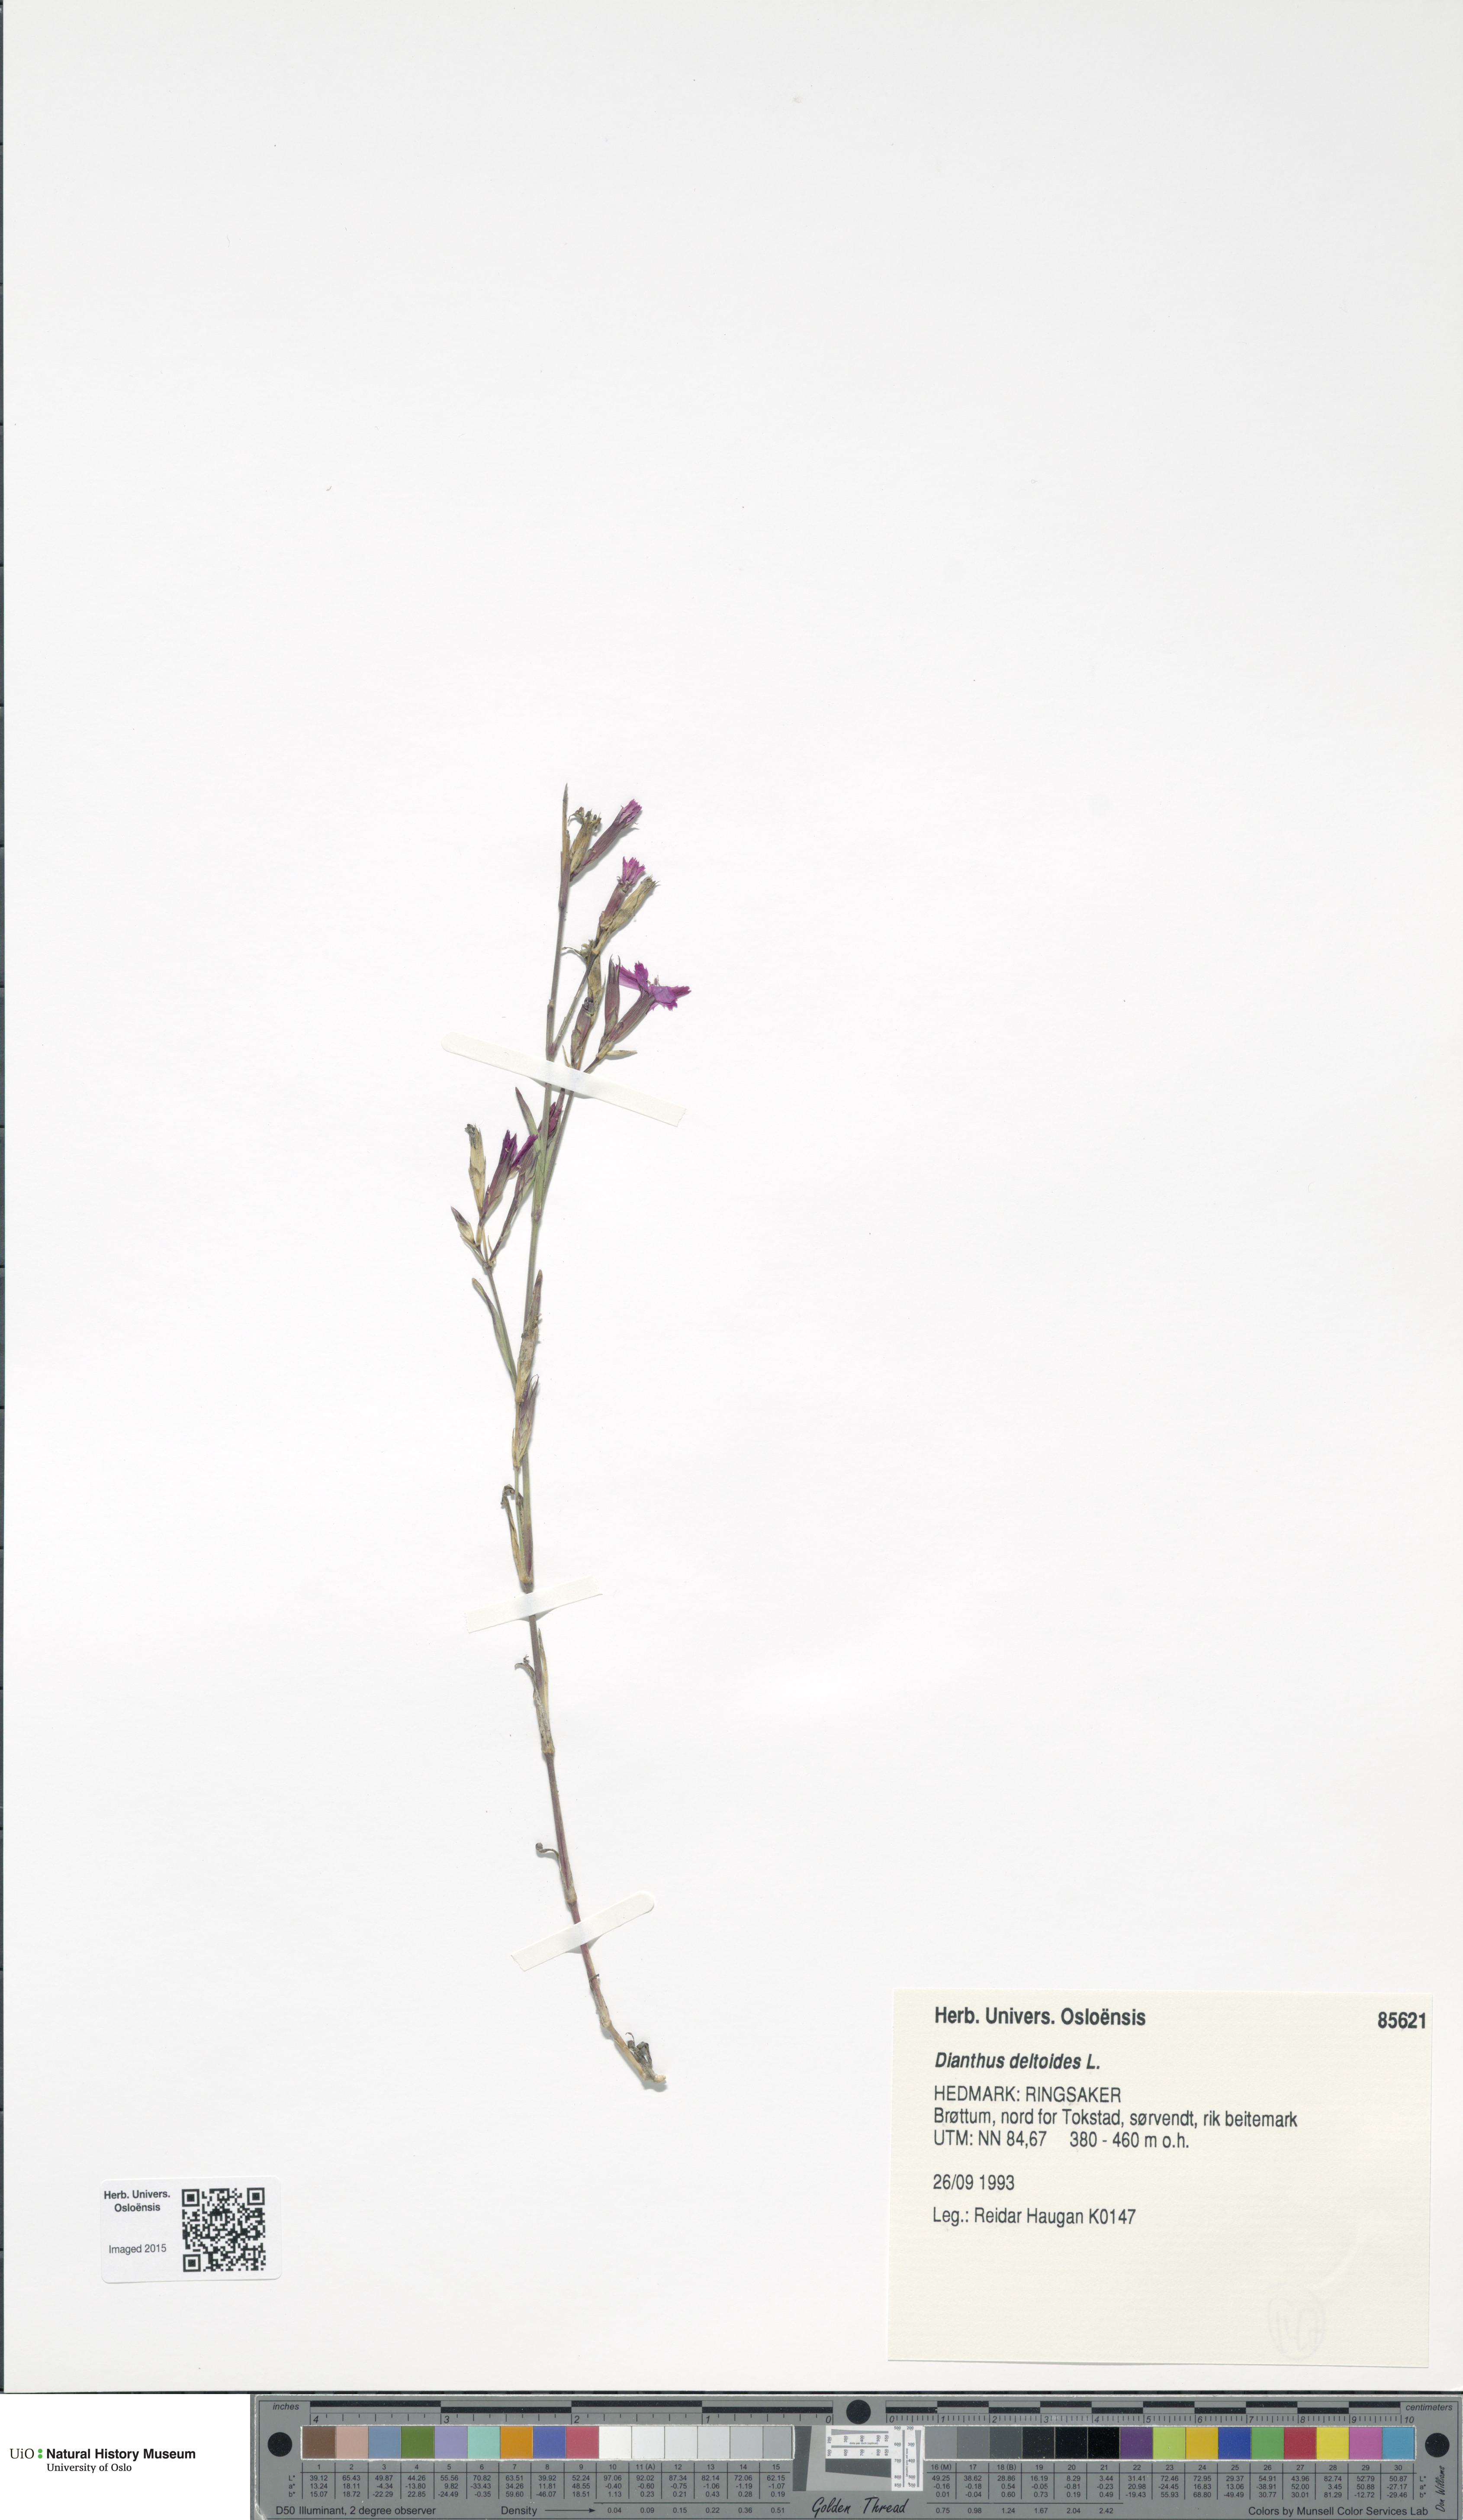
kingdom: Plantae
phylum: Tracheophyta
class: Magnoliopsida
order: Caryophyllales
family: Caryophyllaceae
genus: Dianthus
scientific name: Dianthus deltoides
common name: Maiden pink
